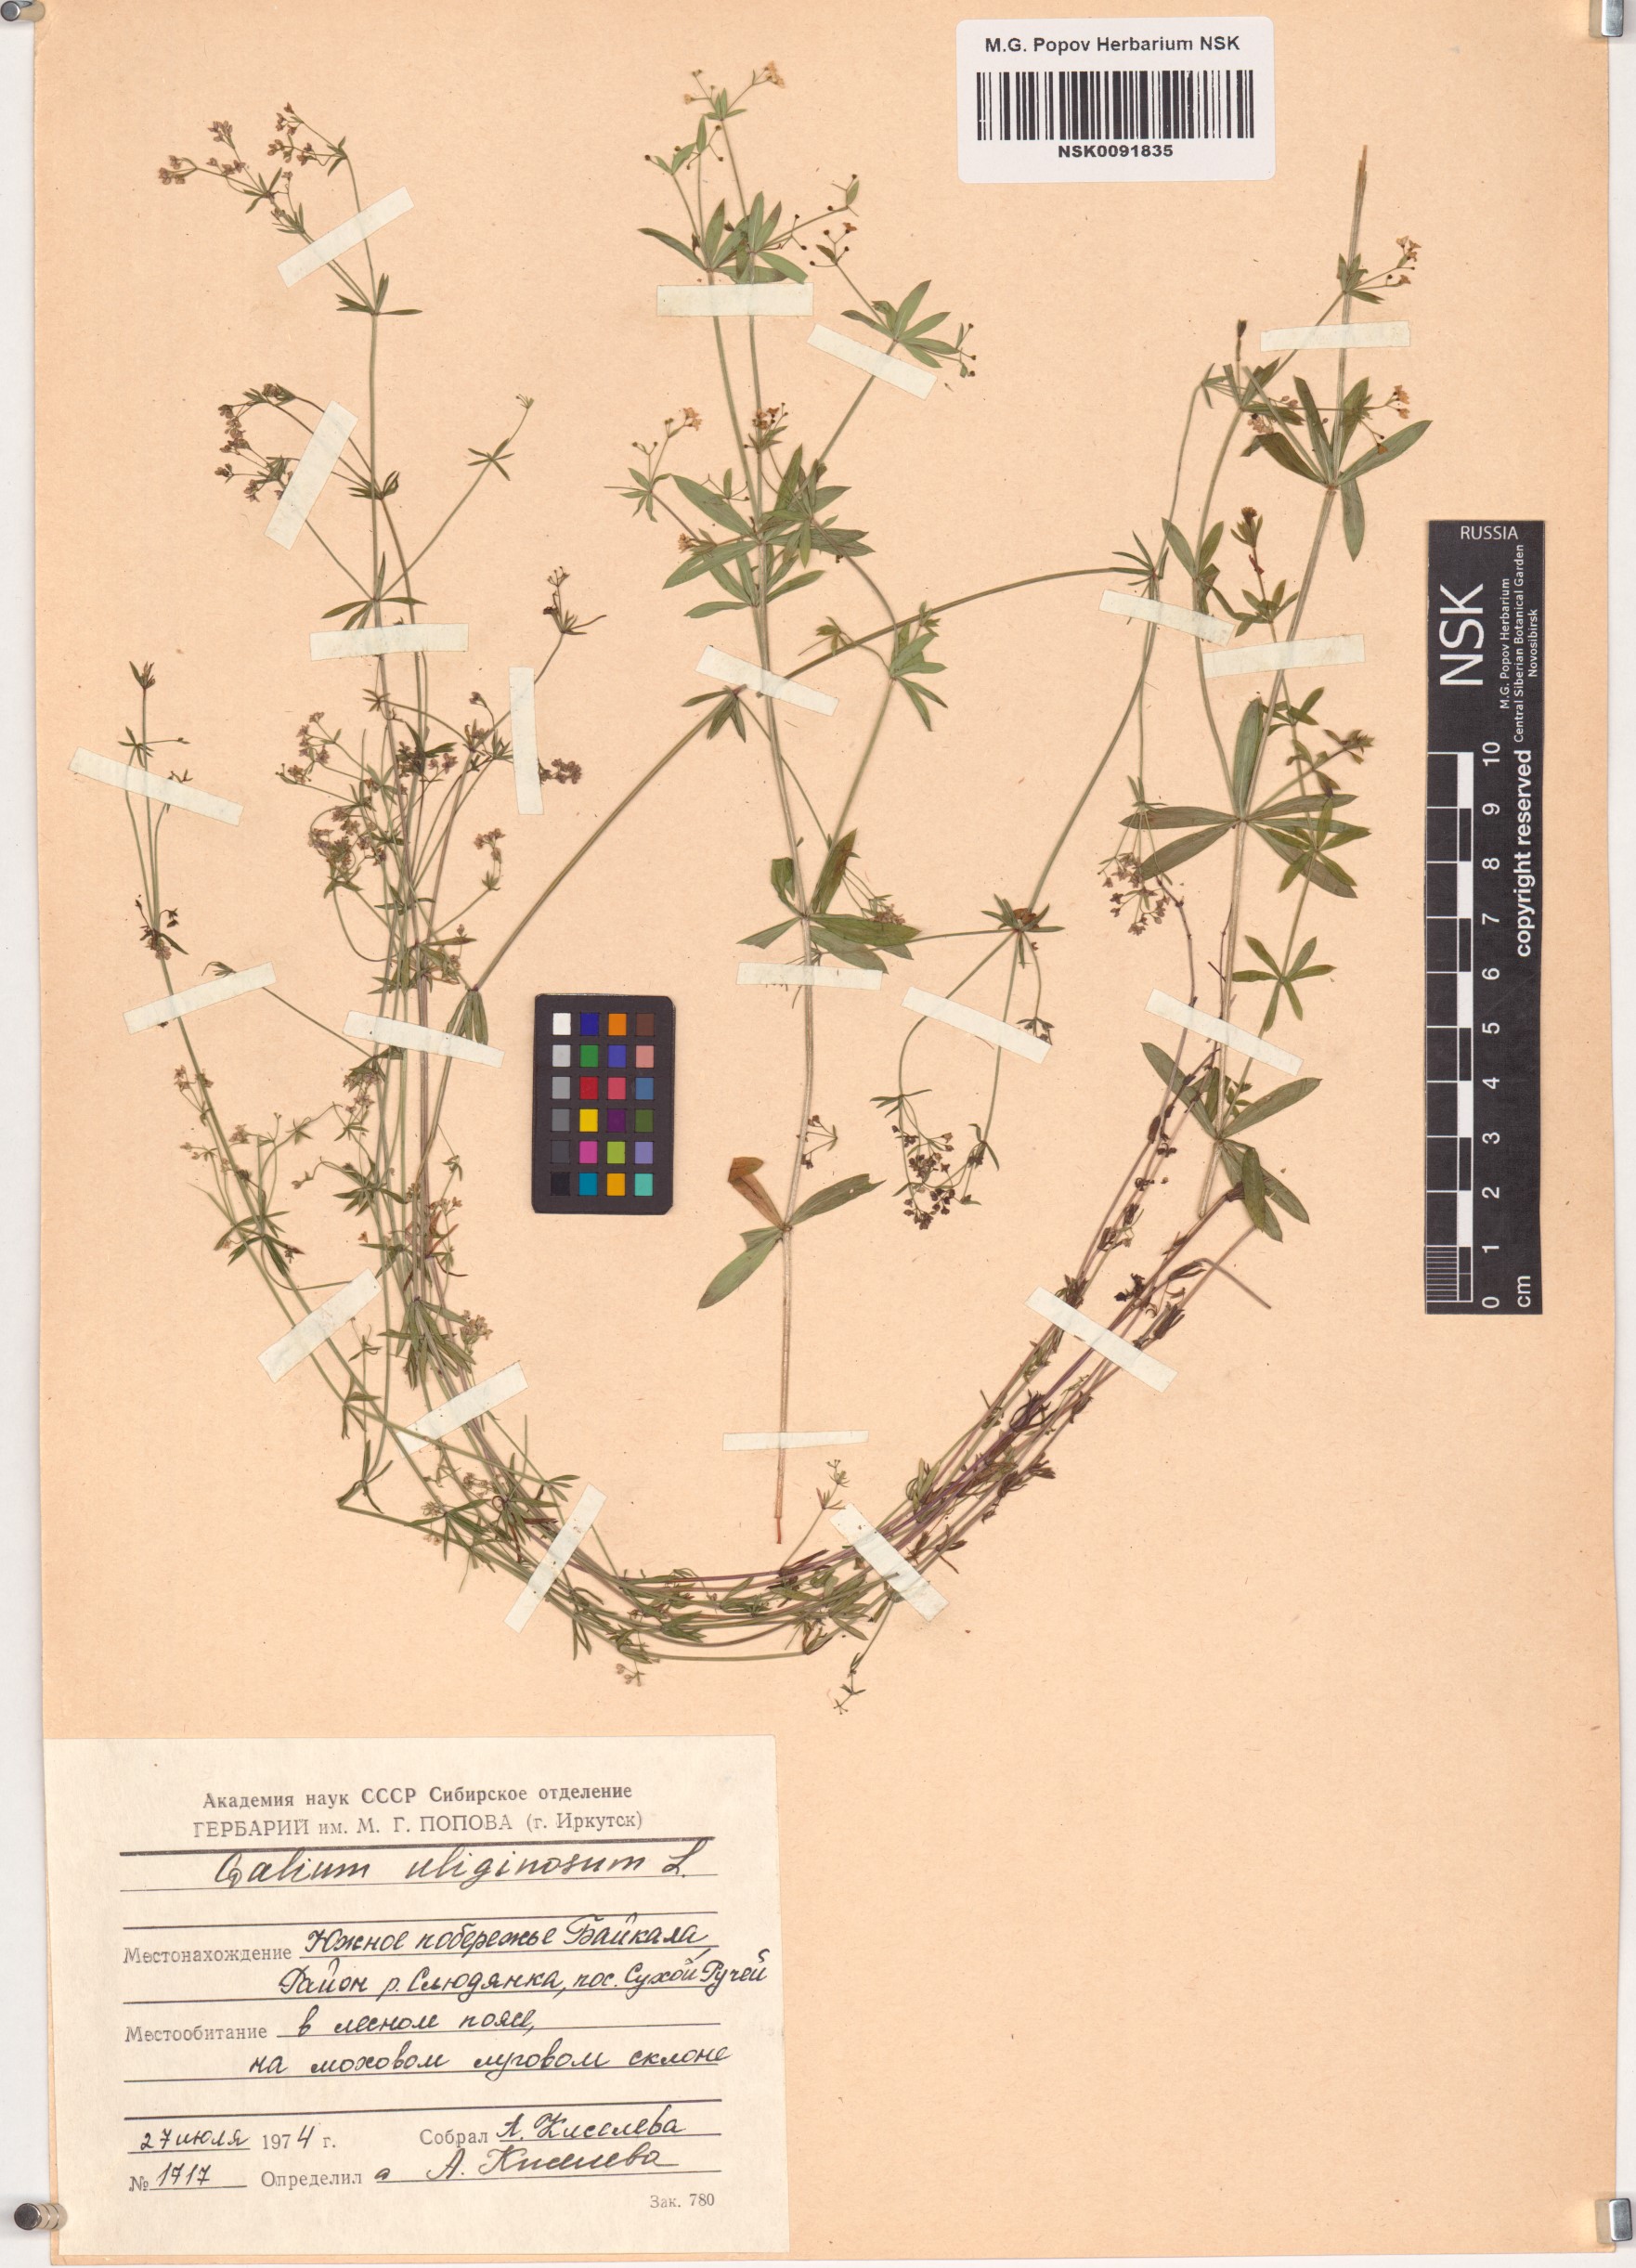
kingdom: Plantae
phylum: Tracheophyta
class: Magnoliopsida
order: Gentianales
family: Rubiaceae
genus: Galium
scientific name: Galium uliginosum
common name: Fen bedstraw
